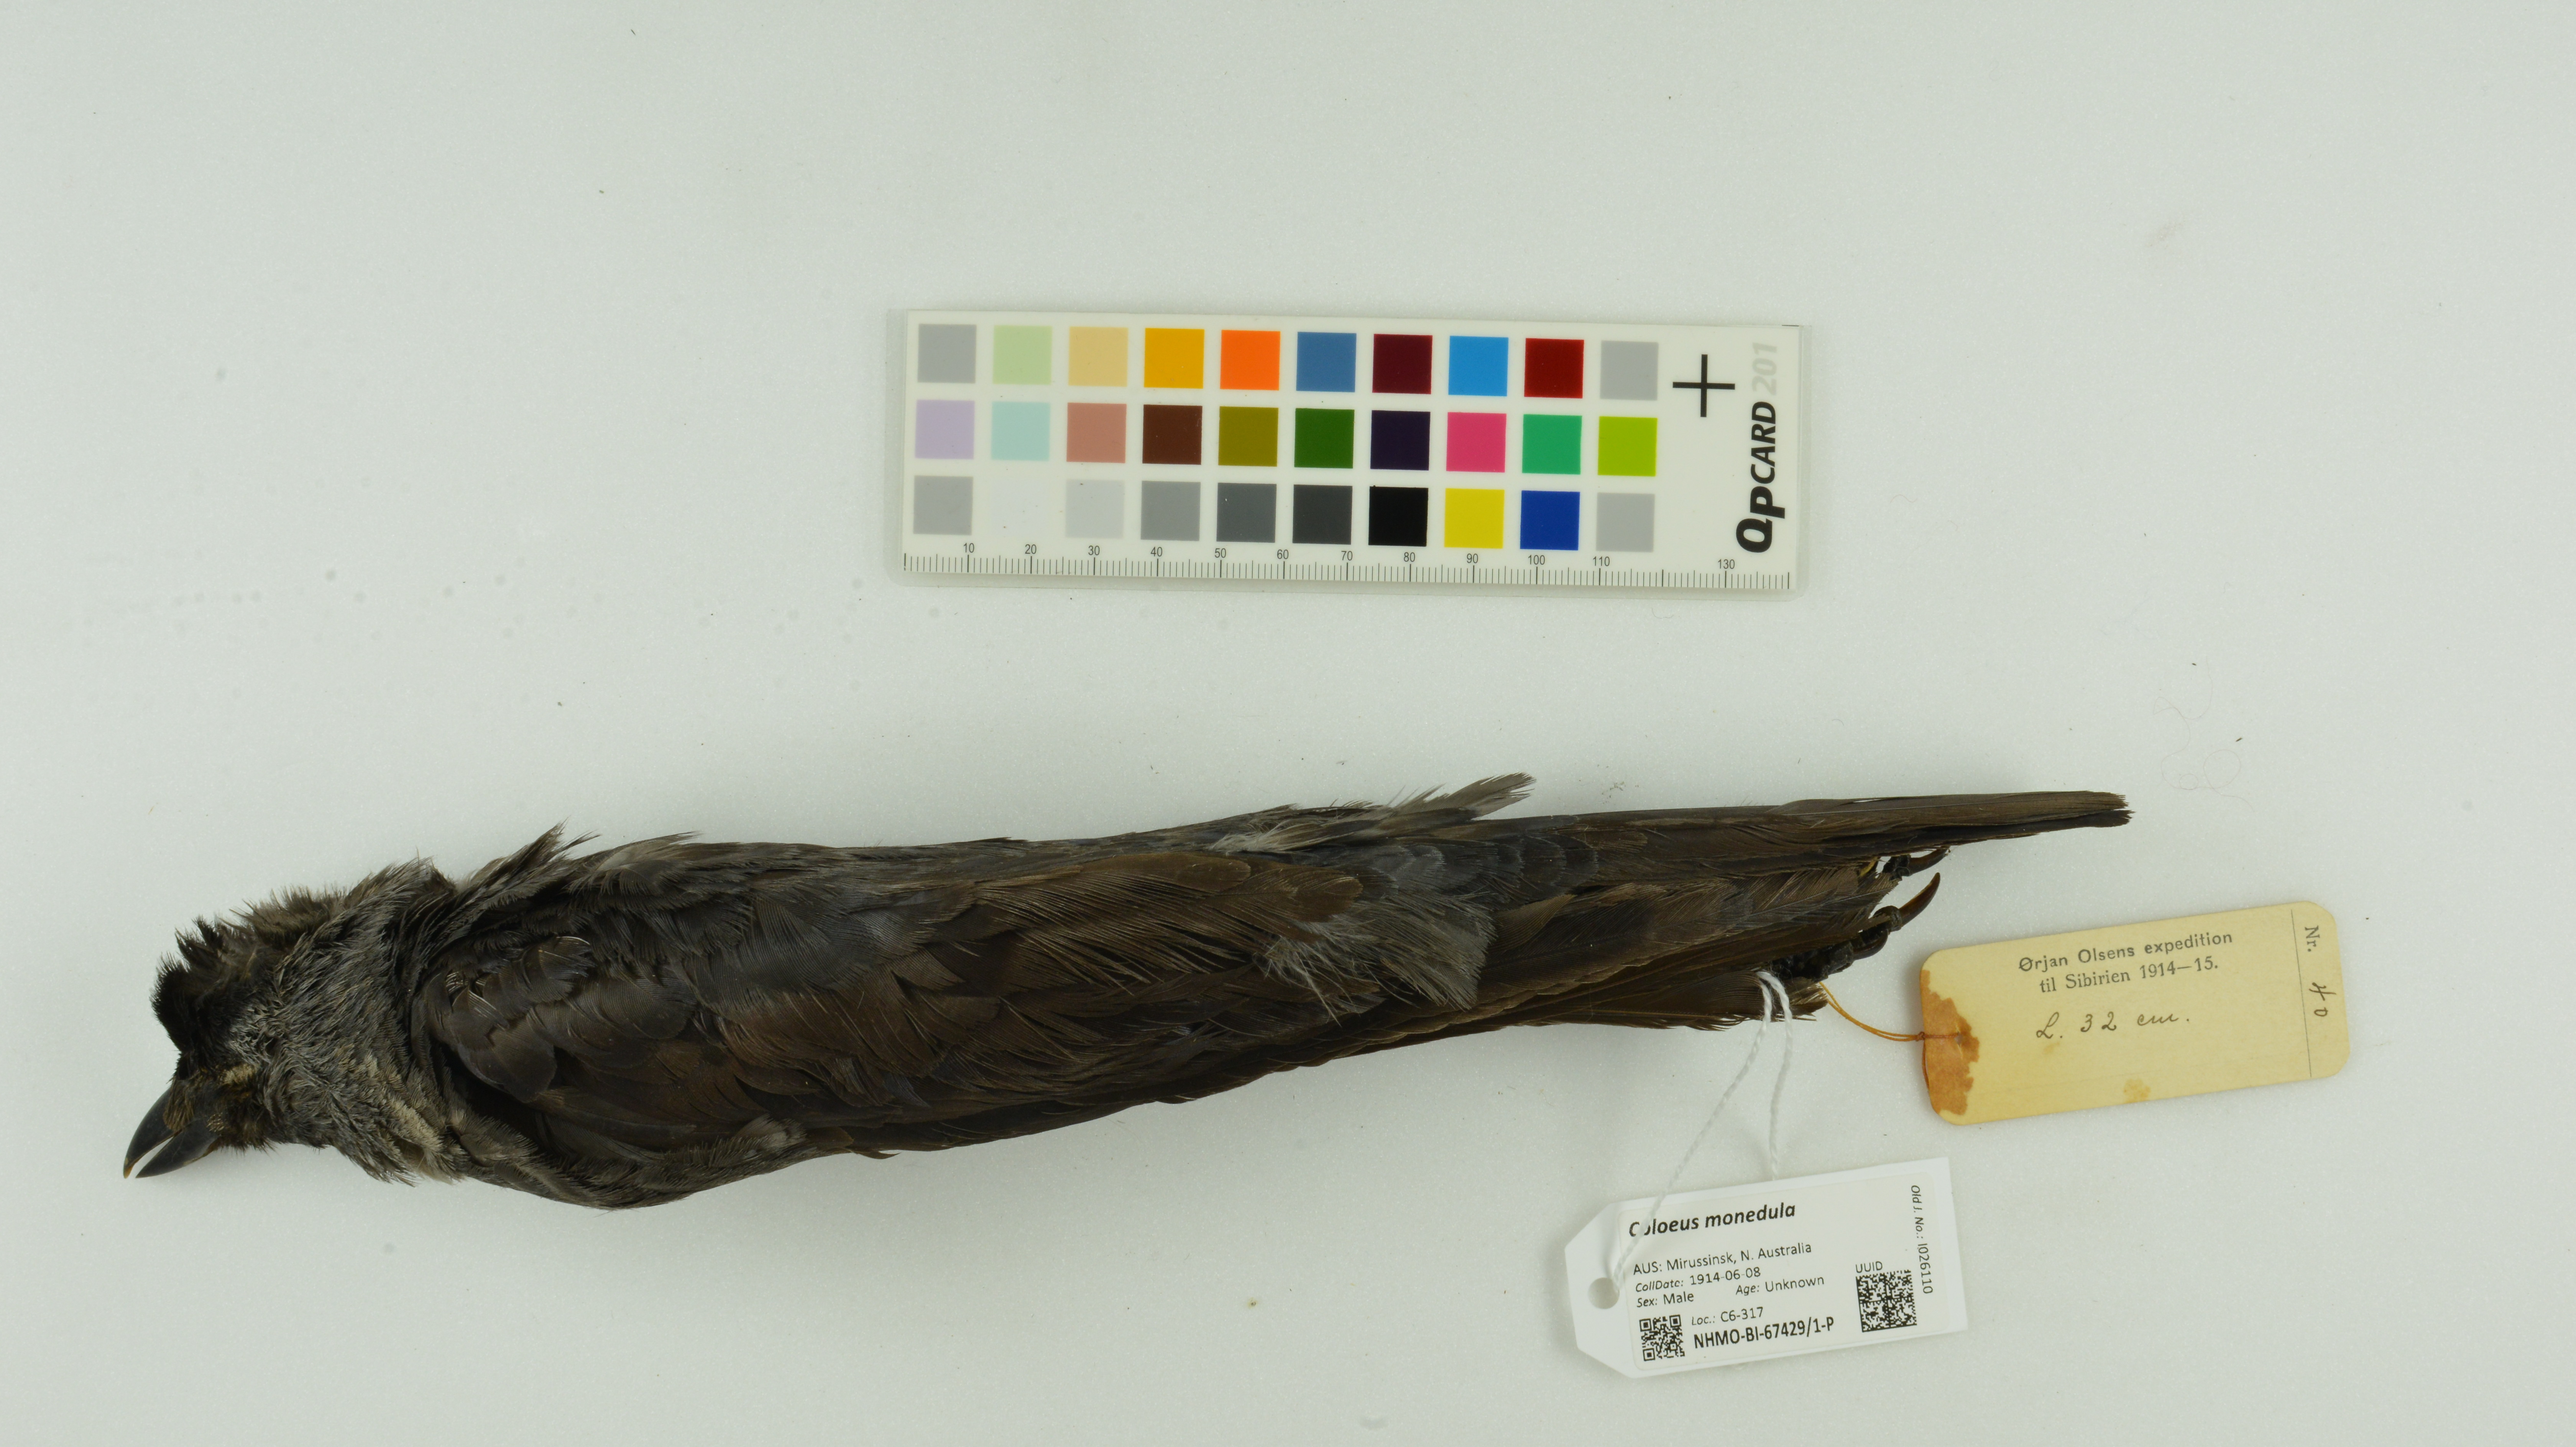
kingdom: Animalia
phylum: Chordata
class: Aves
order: Passeriformes
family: Corvidae
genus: Coloeus
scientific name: Coloeus monedula
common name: Western jackdaw
